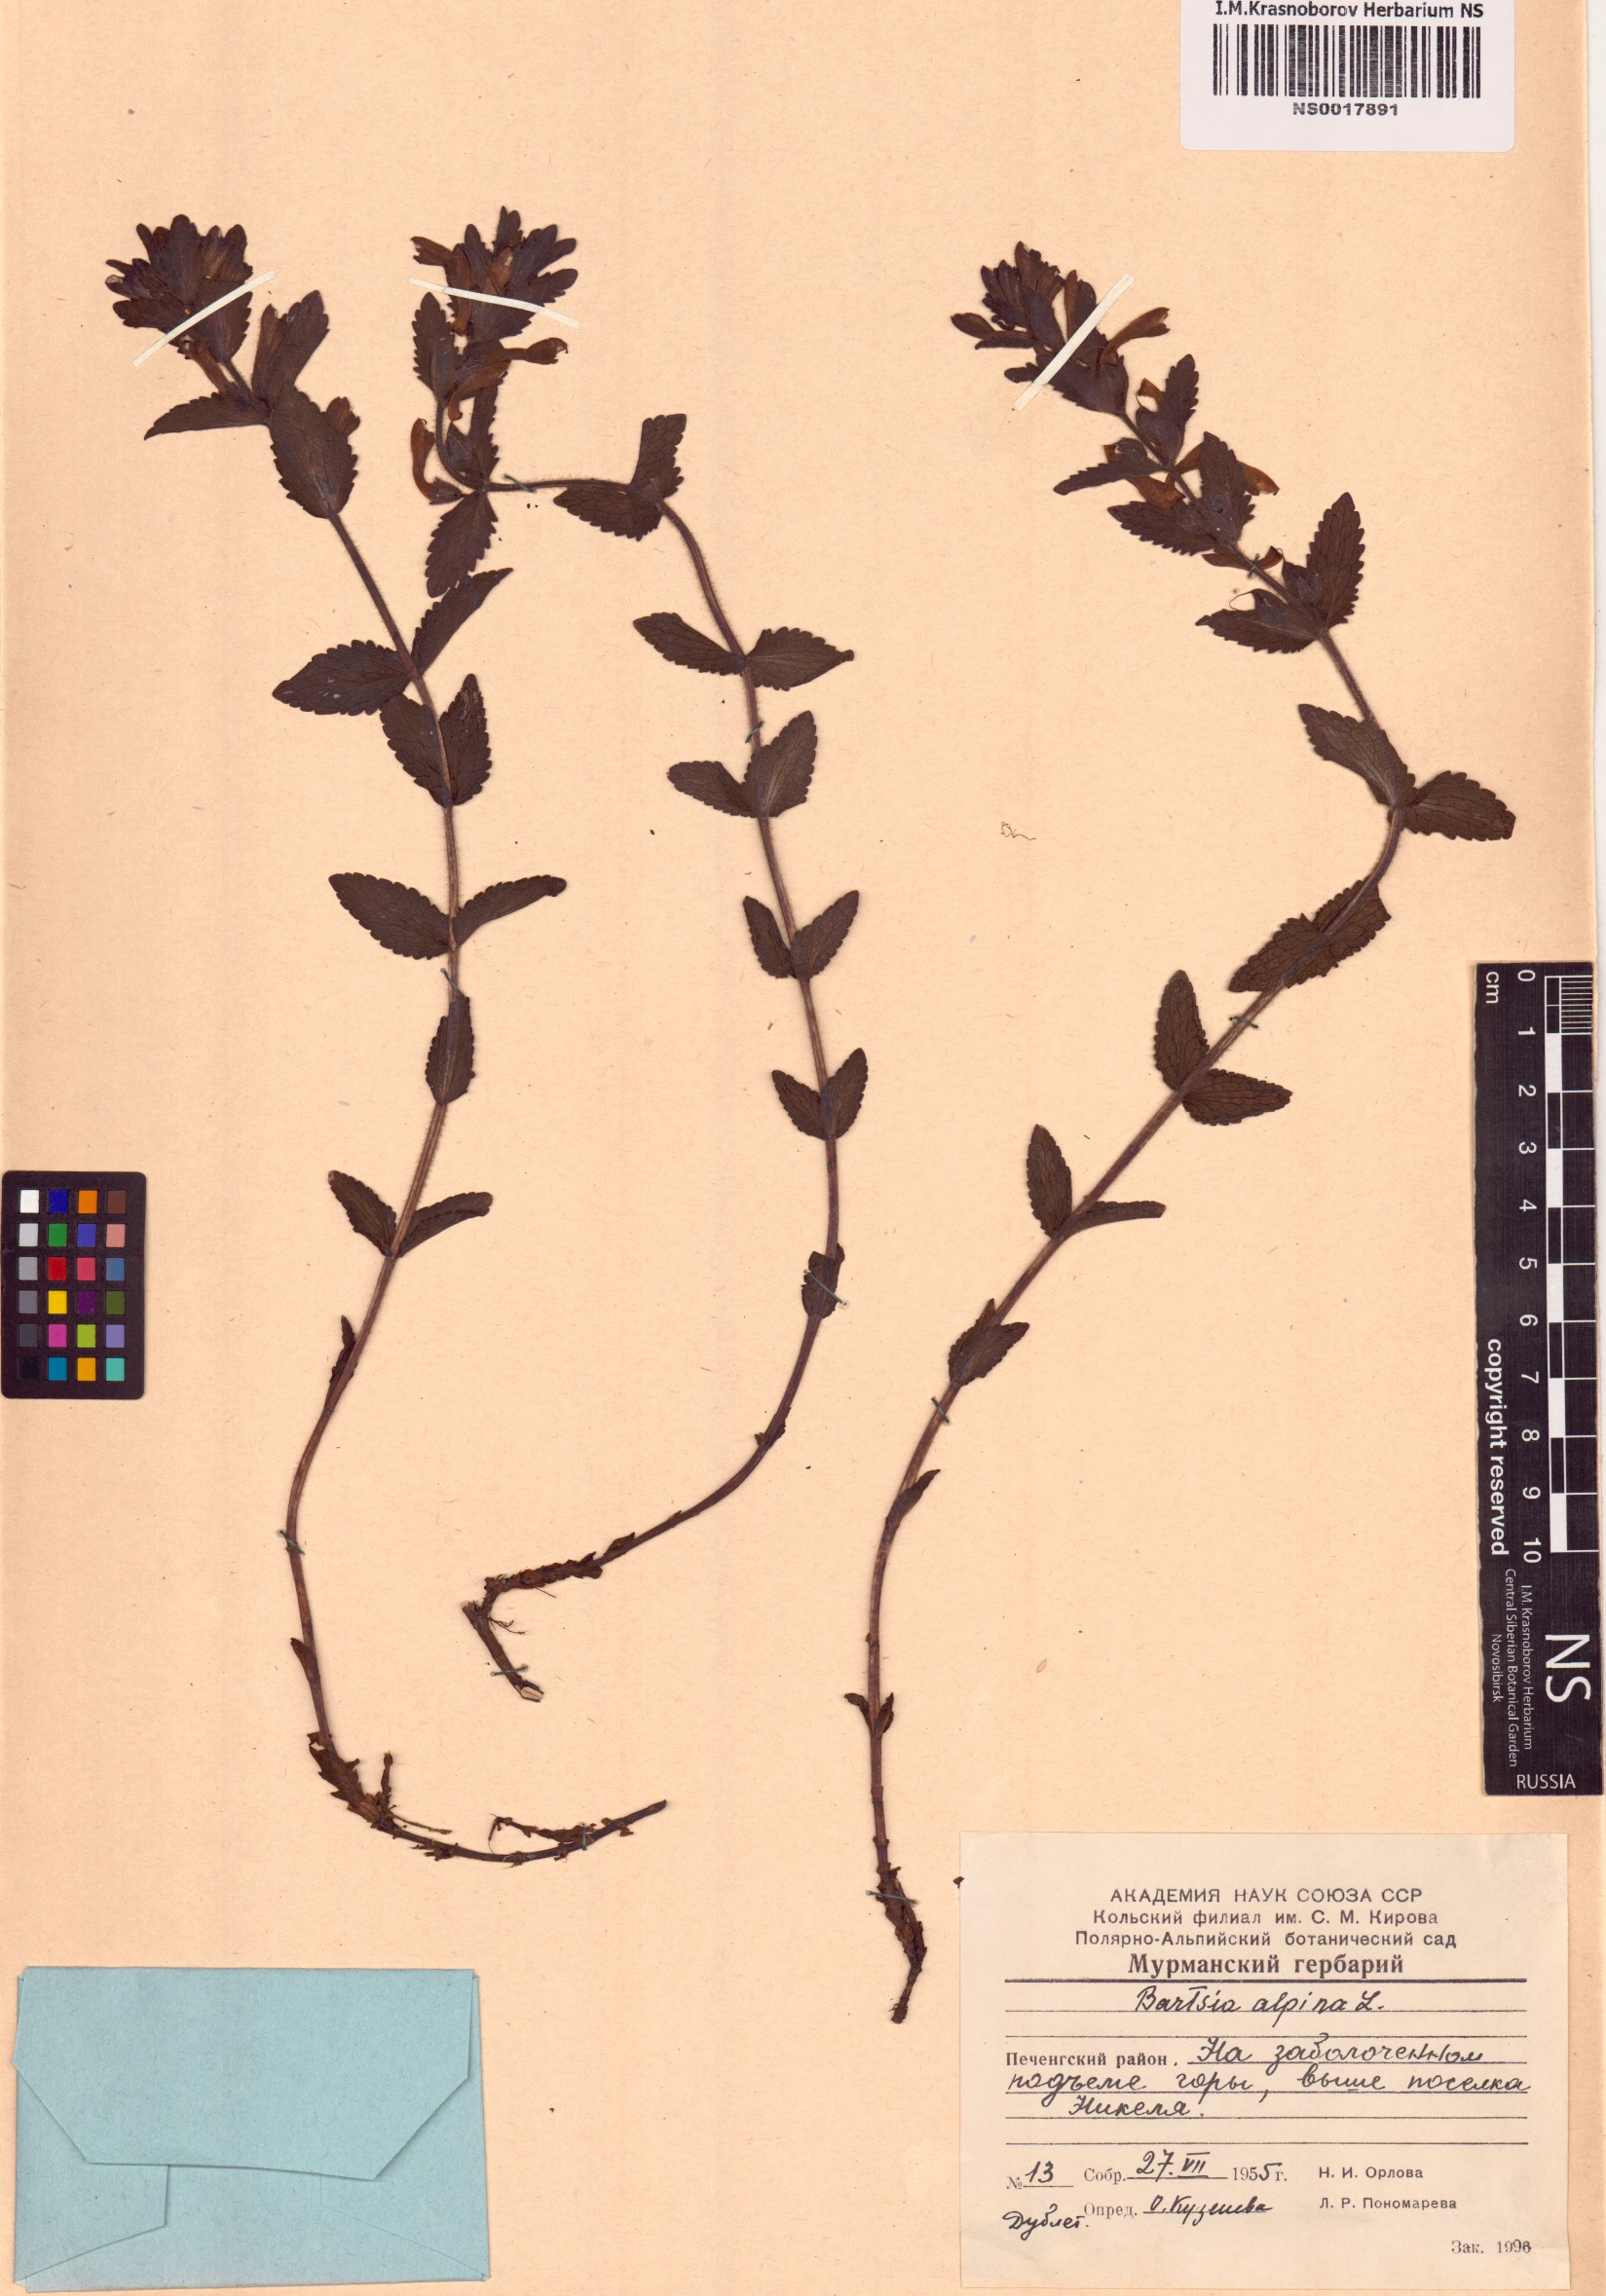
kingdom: Plantae
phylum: Tracheophyta
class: Magnoliopsida
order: Lamiales
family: Orobanchaceae
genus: Bartsia
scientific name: Bartsia alpina
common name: Alpine bartsia
